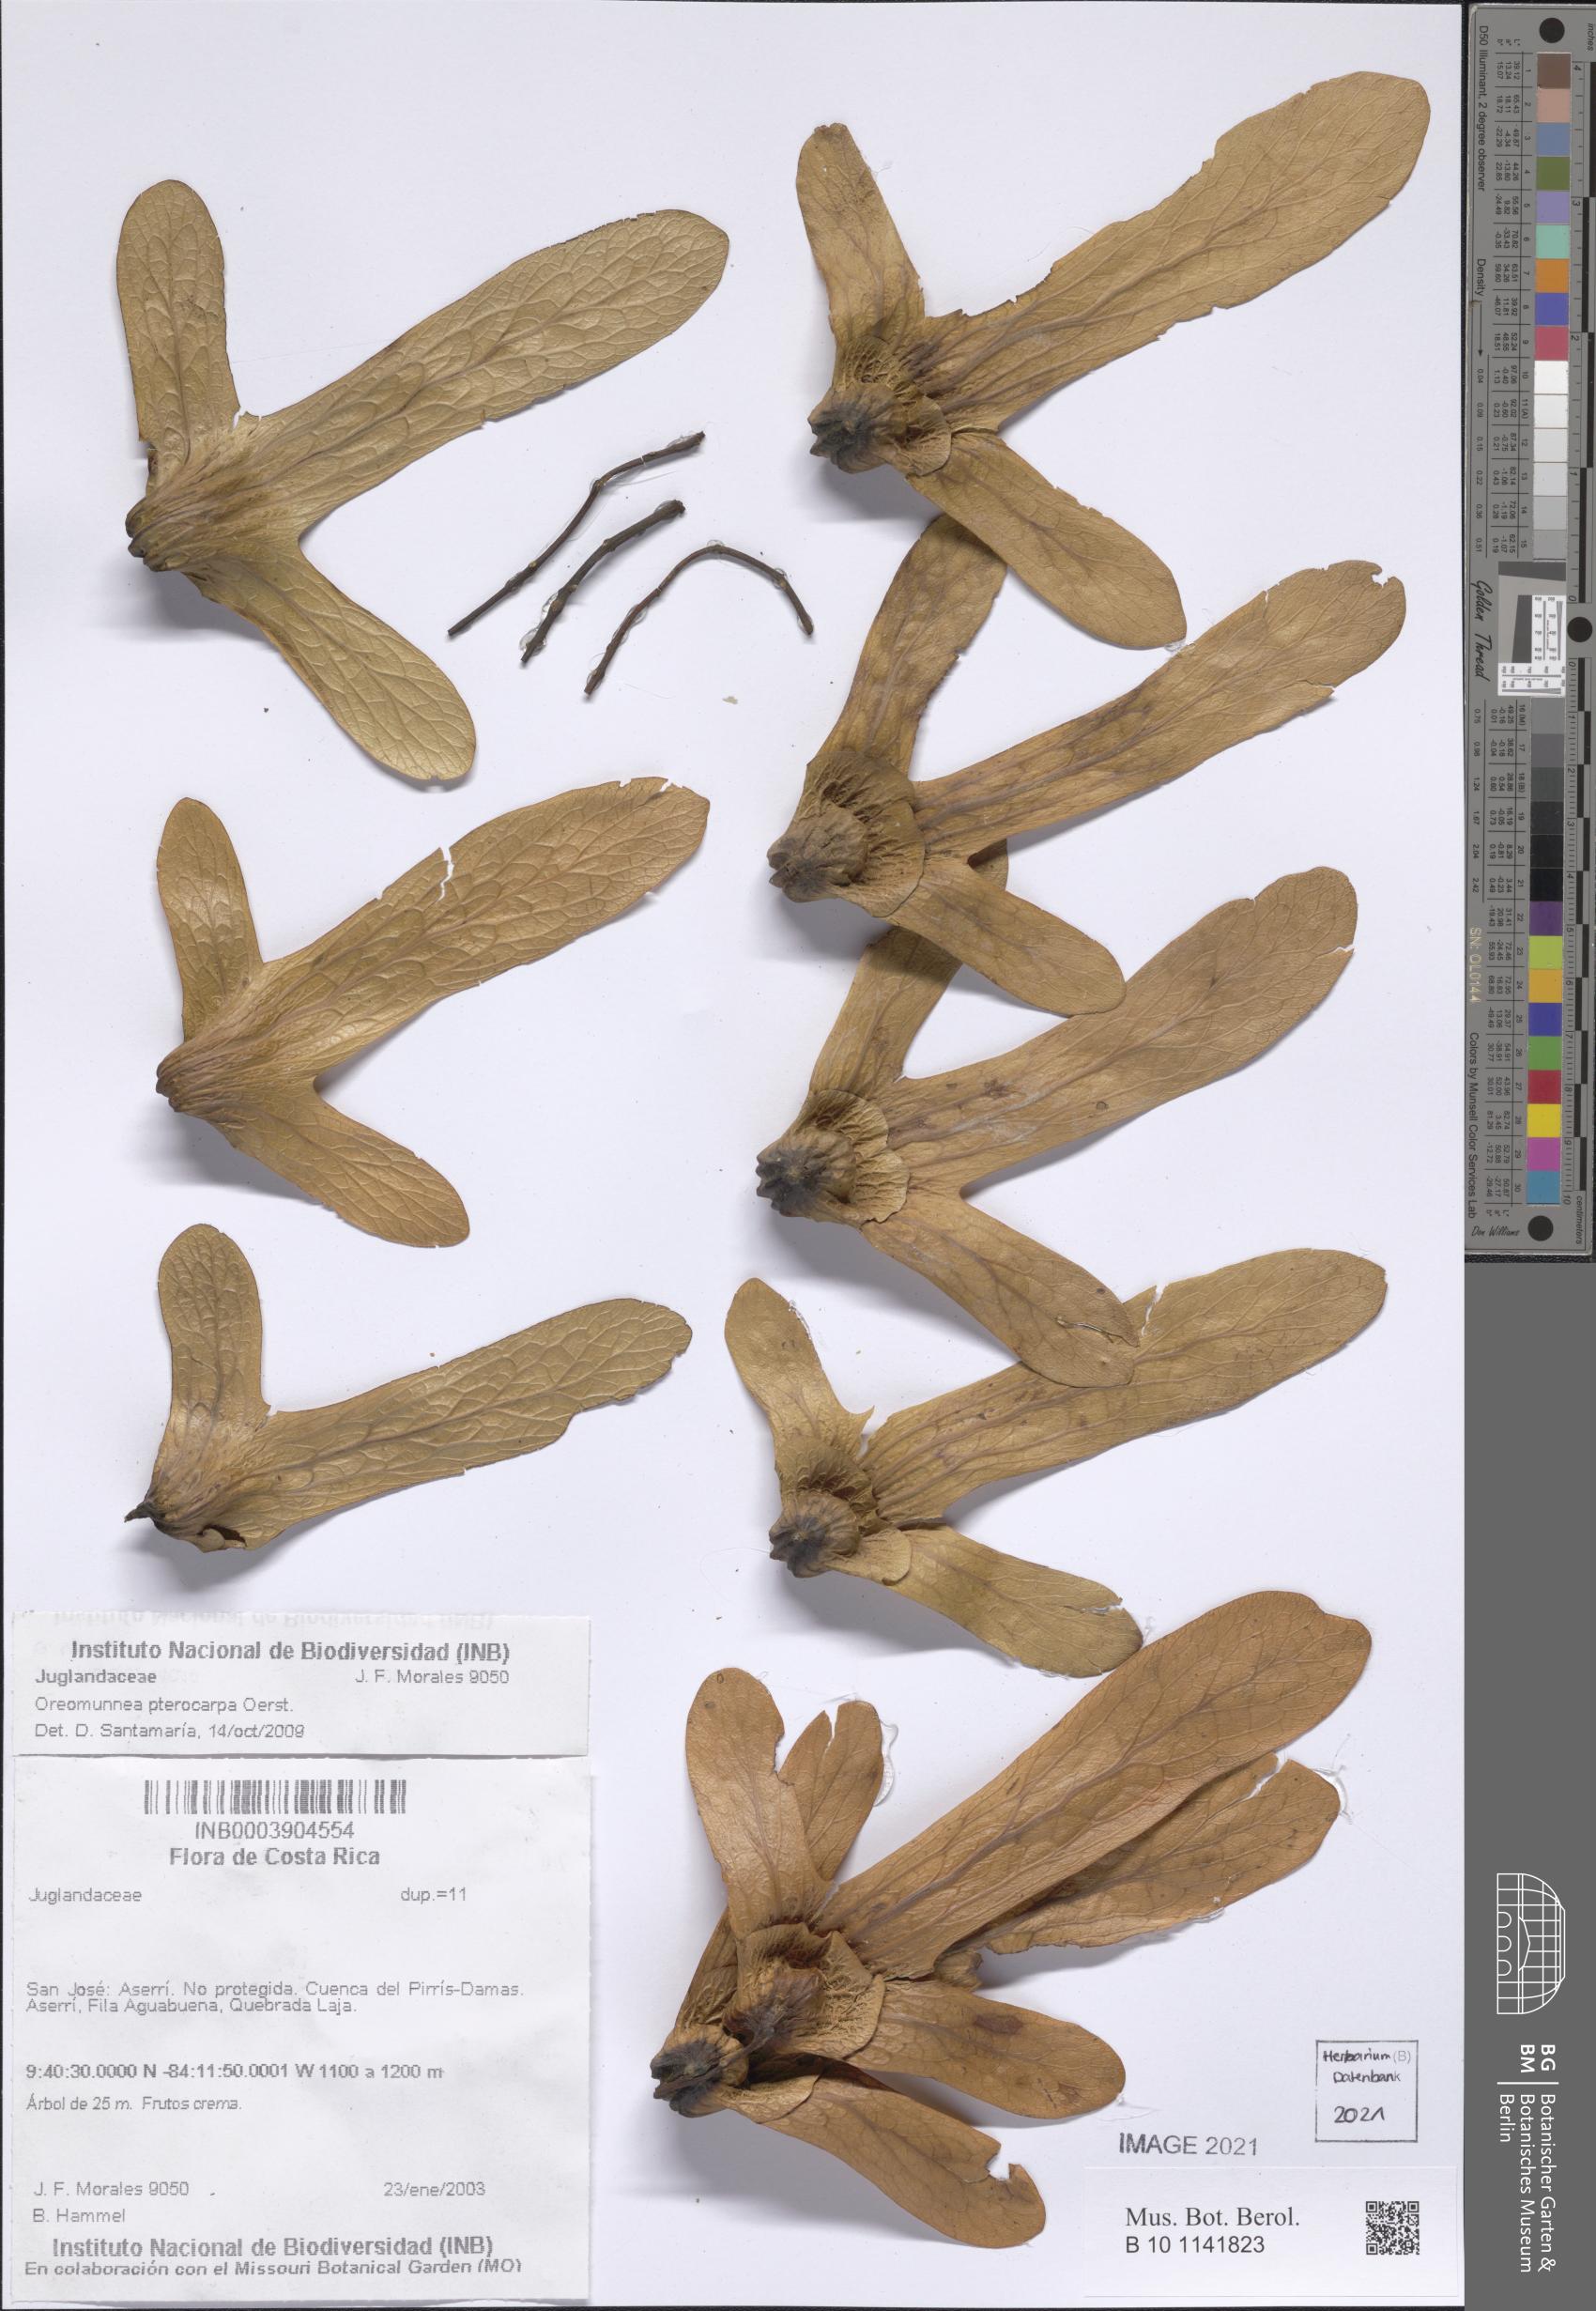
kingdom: Plantae
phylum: Tracheophyta
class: Magnoliopsida
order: Fagales
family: Juglandaceae
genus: Oreomunnea
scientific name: Oreomunnea pterocarpa
